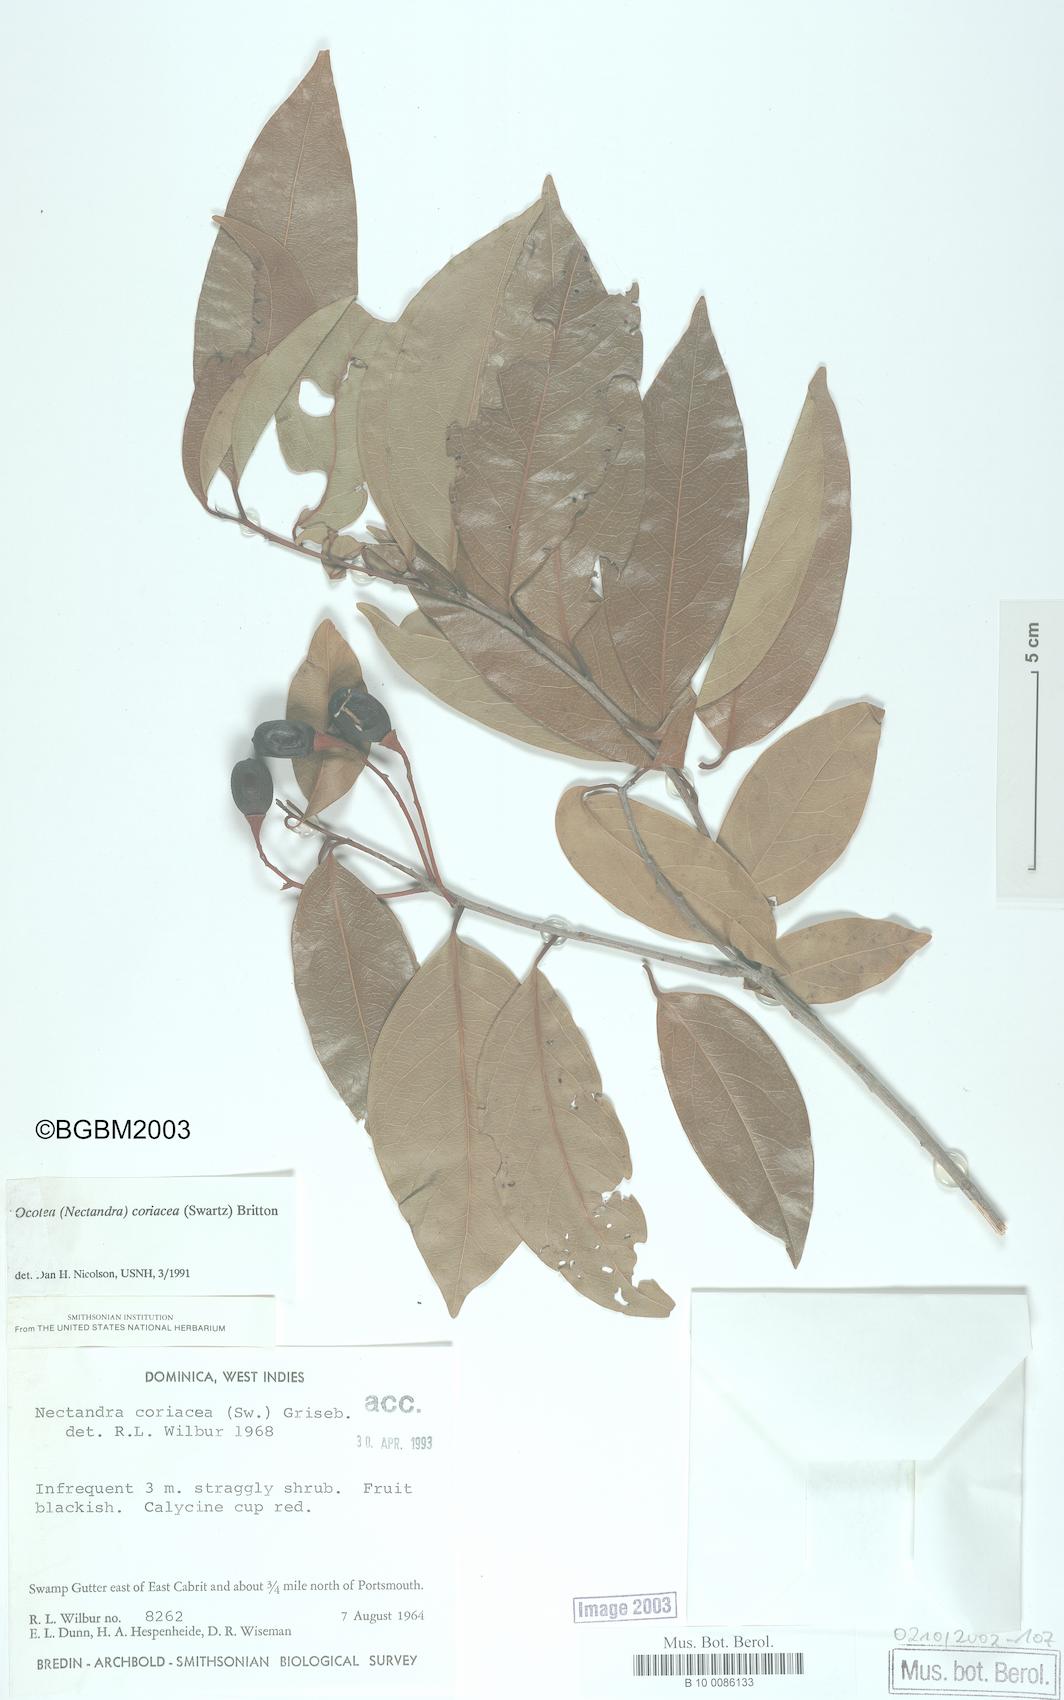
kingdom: Plantae
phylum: Tracheophyta
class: Magnoliopsida
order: Laurales
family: Lauraceae
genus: Damburneya
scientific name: Damburneya
